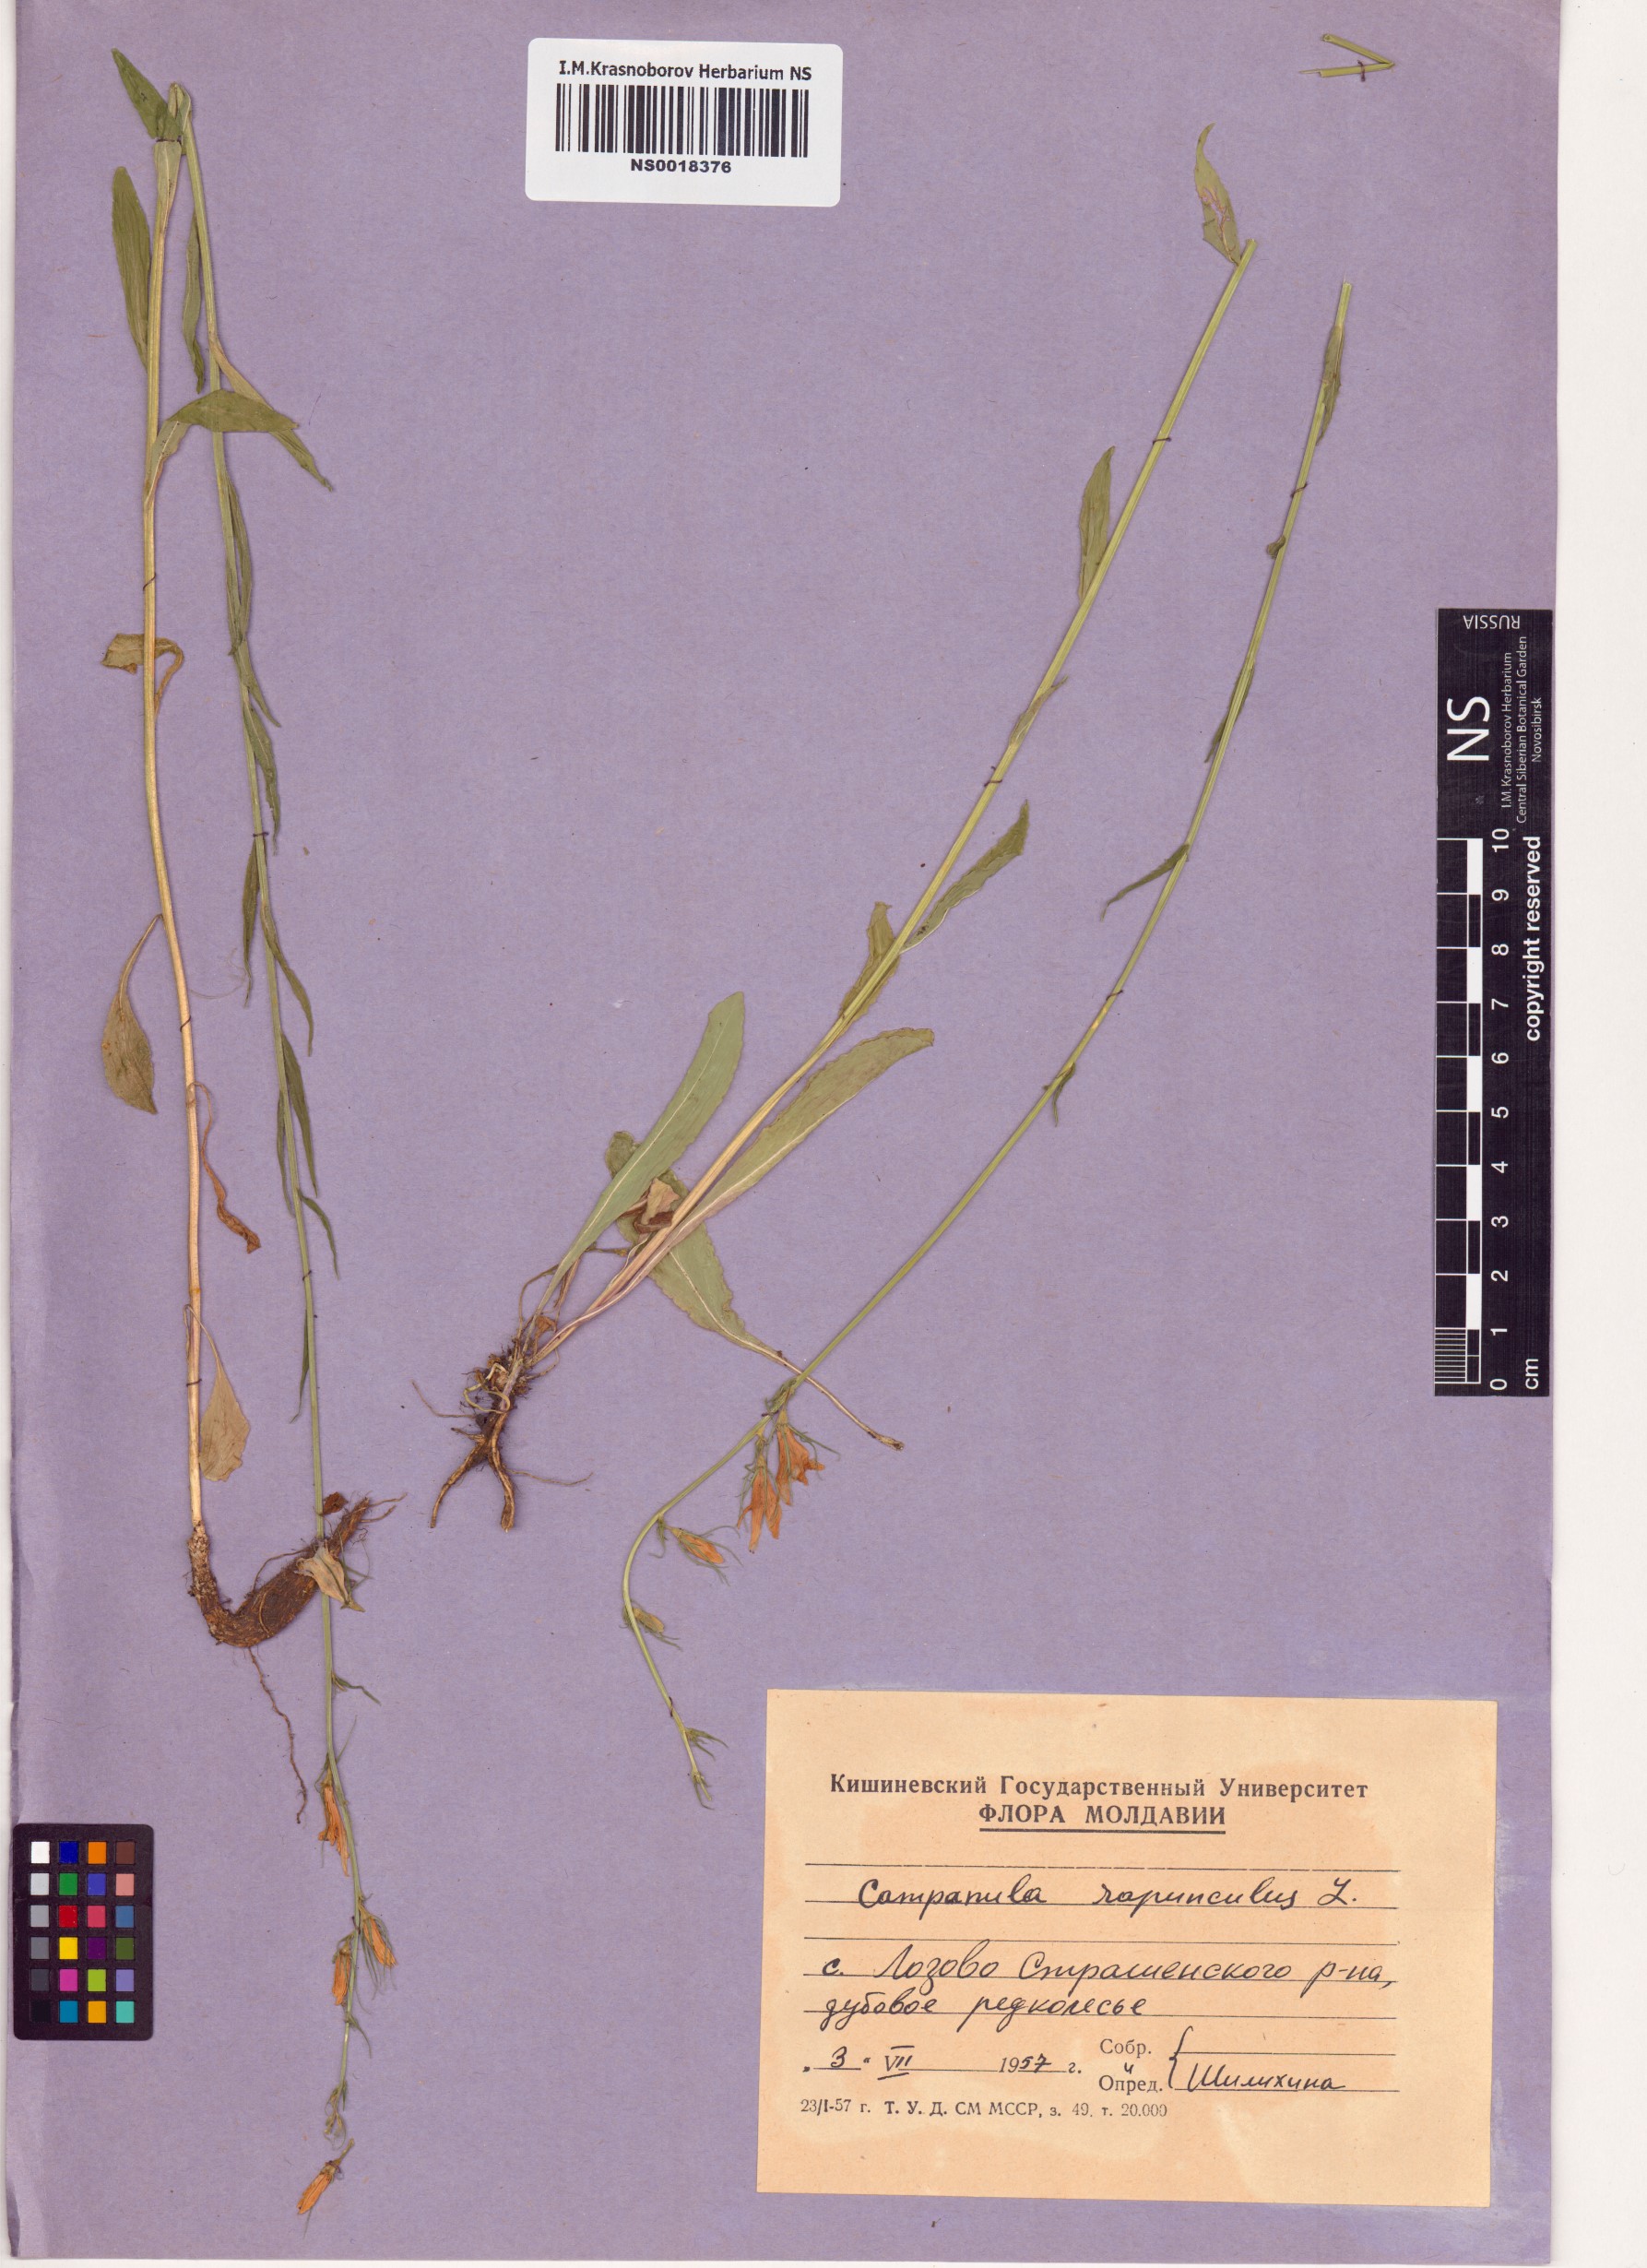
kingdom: Plantae
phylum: Tracheophyta
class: Magnoliopsida
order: Asterales
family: Campanulaceae
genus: Campanula
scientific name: Campanula rapunculus
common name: Rampion bellflower
